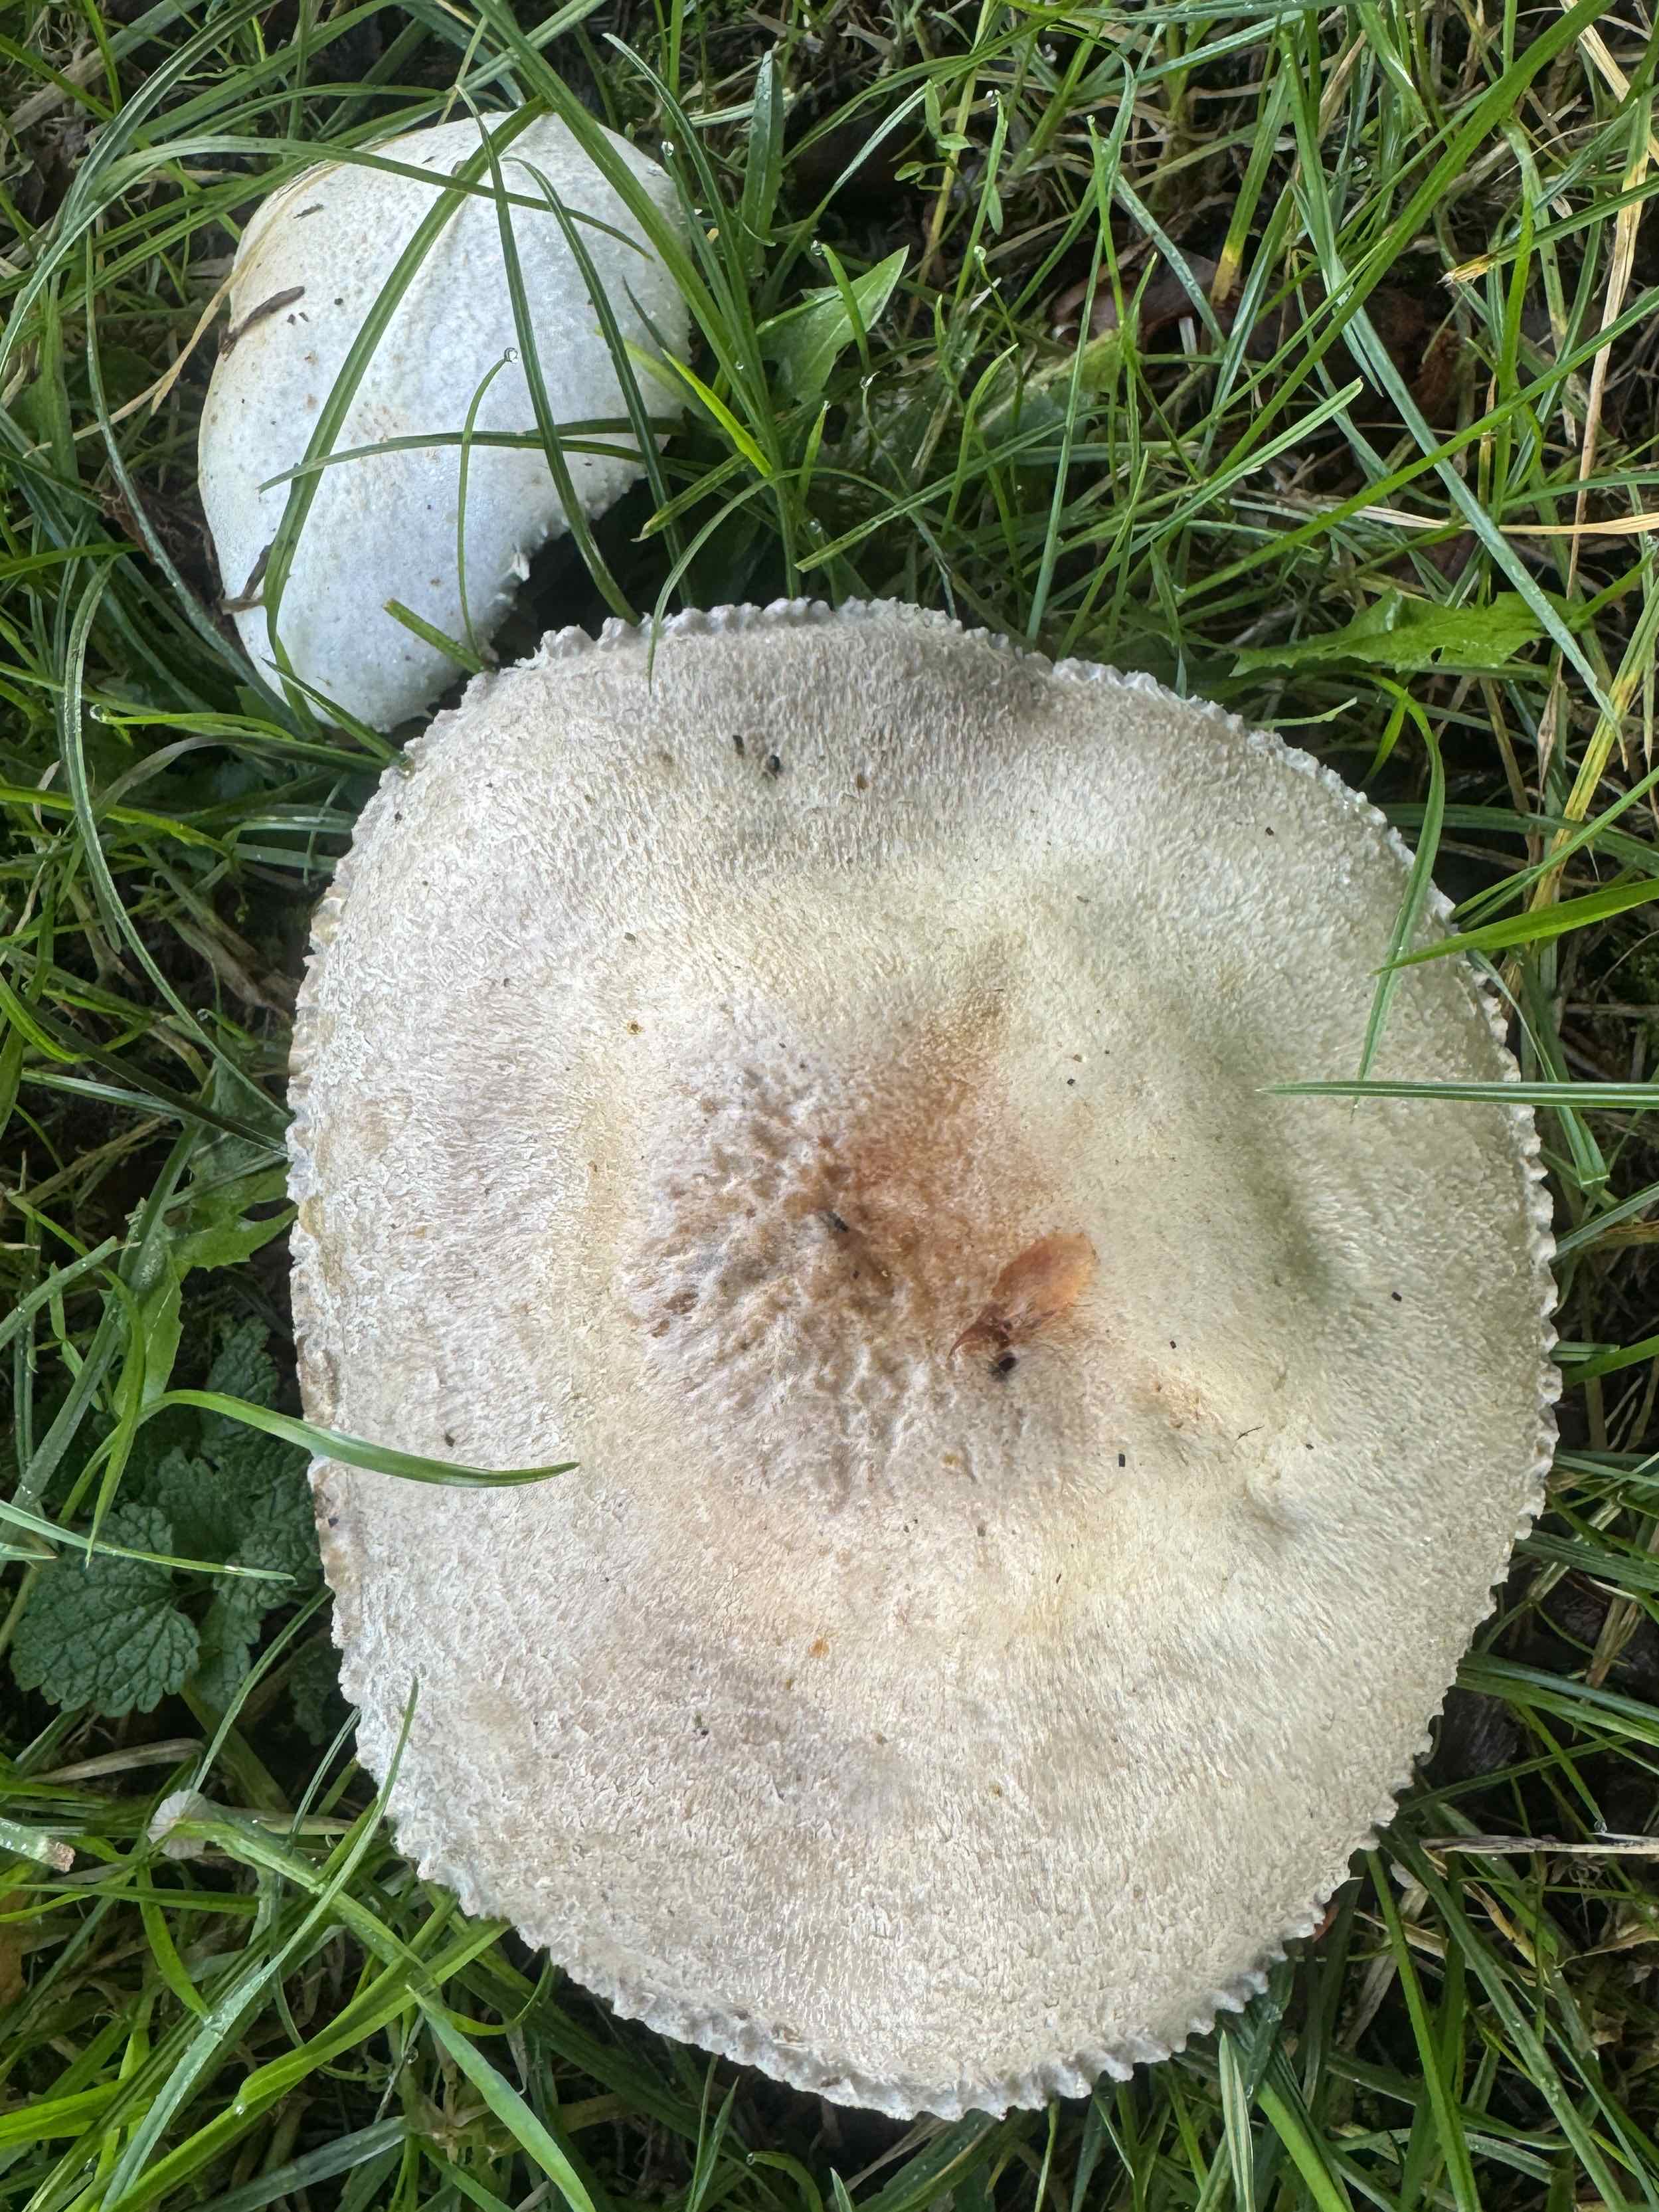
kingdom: Fungi
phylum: Basidiomycota
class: Agaricomycetes
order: Agaricales
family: Agaricaceae
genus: Agaricus
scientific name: Agaricus arvensis
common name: ager-champignon
